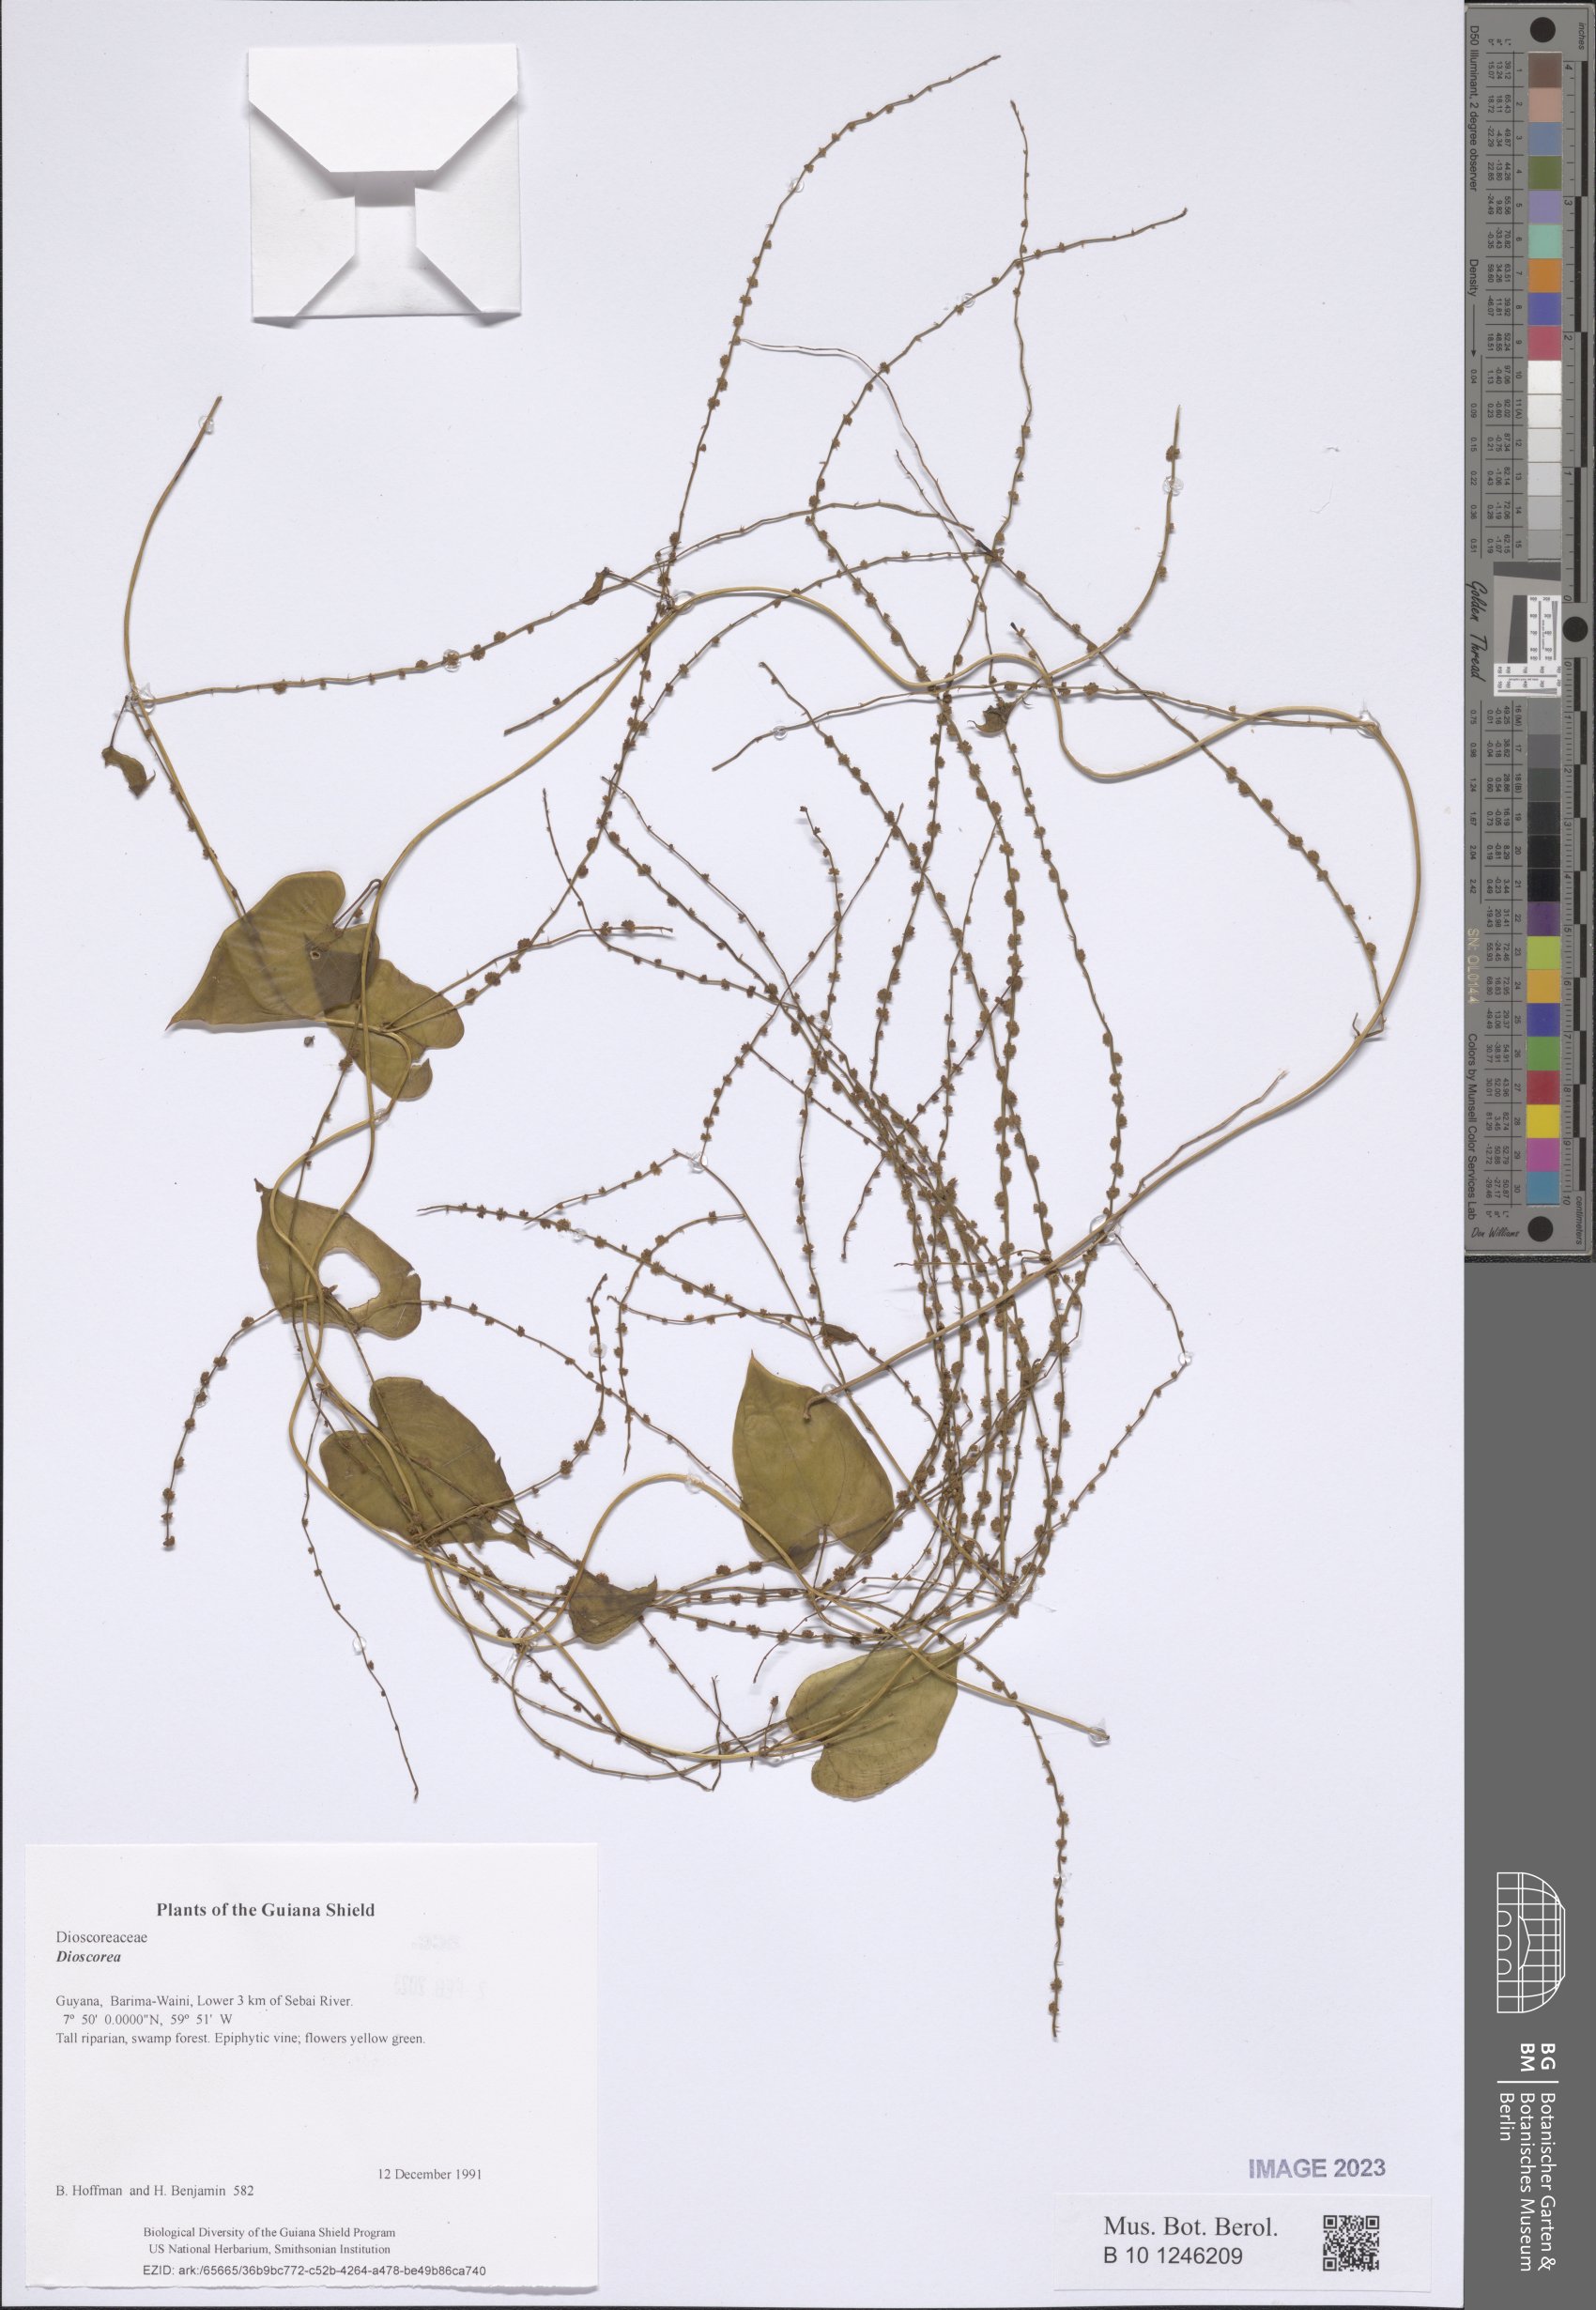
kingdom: Plantae
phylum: Tracheophyta
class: Liliopsida
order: Dioscoreales
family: Dioscoreaceae
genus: Dioscorea
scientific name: Dioscorea
